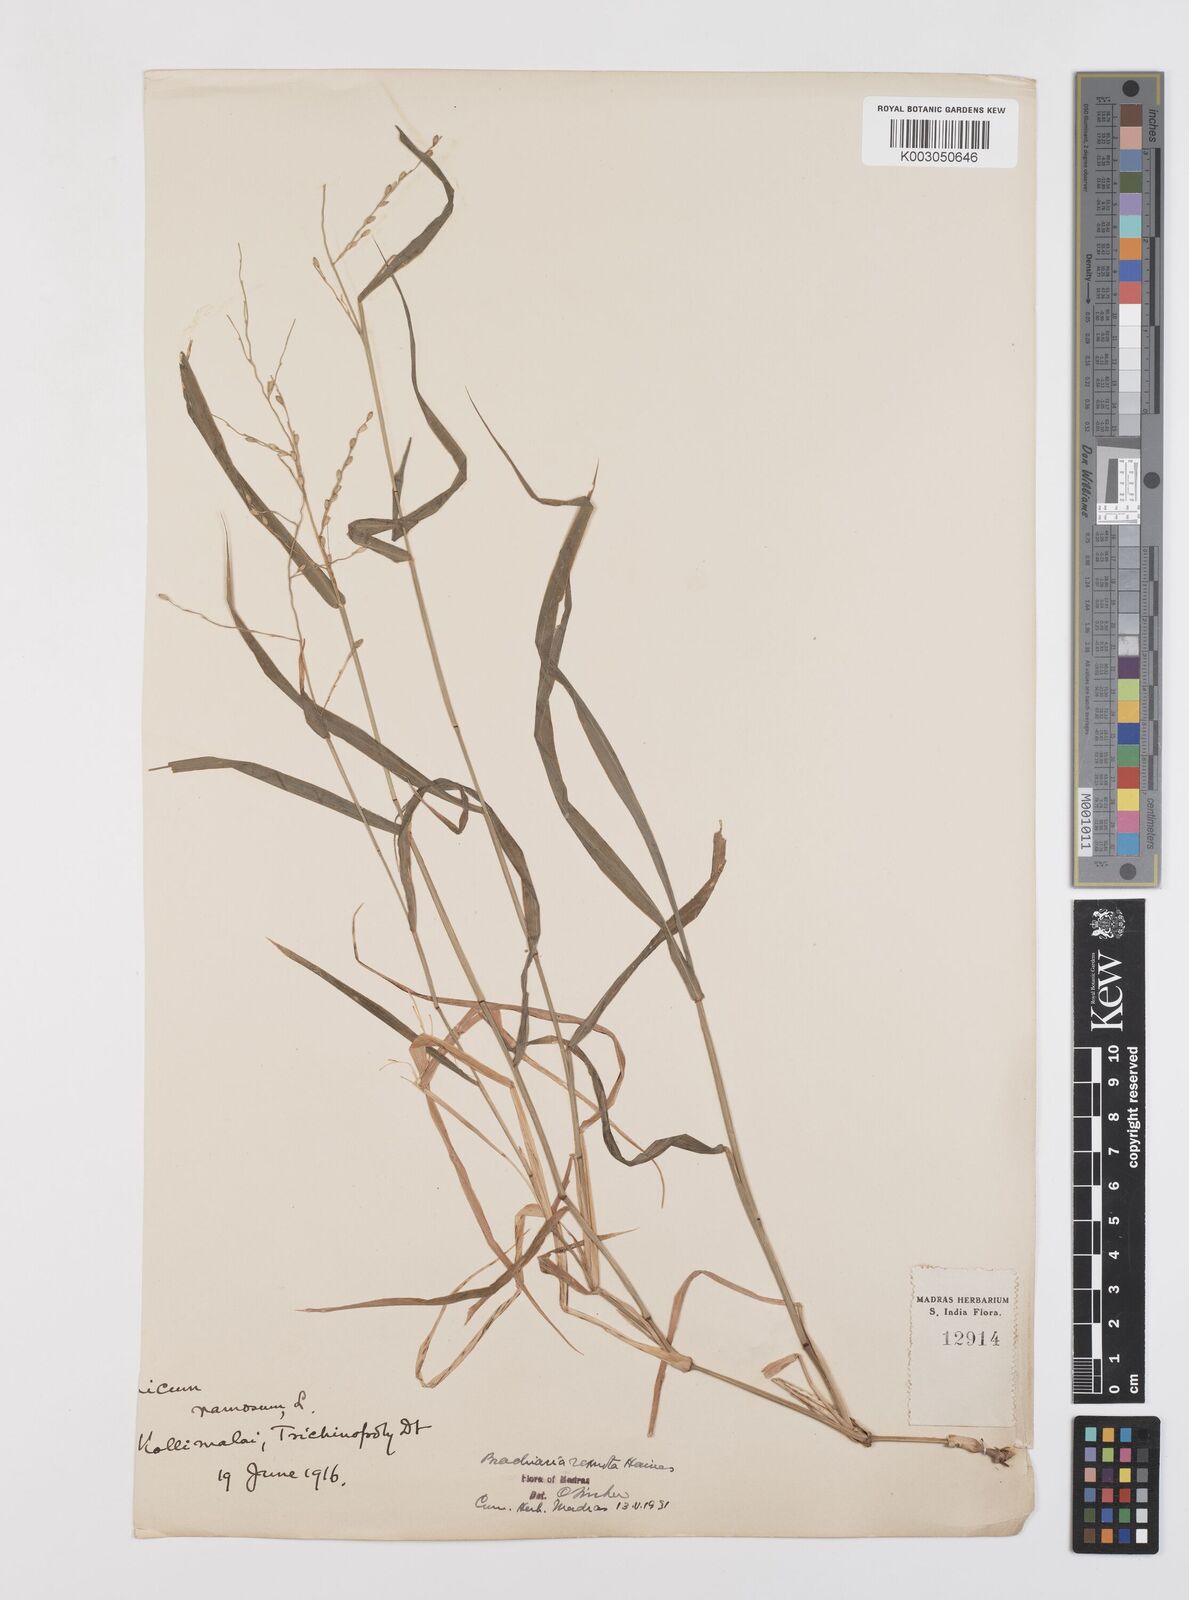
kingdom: Plantae
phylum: Tracheophyta
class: Liliopsida
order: Poales
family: Poaceae
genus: Urochloa
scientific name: Urochloa Brachiaria remota
